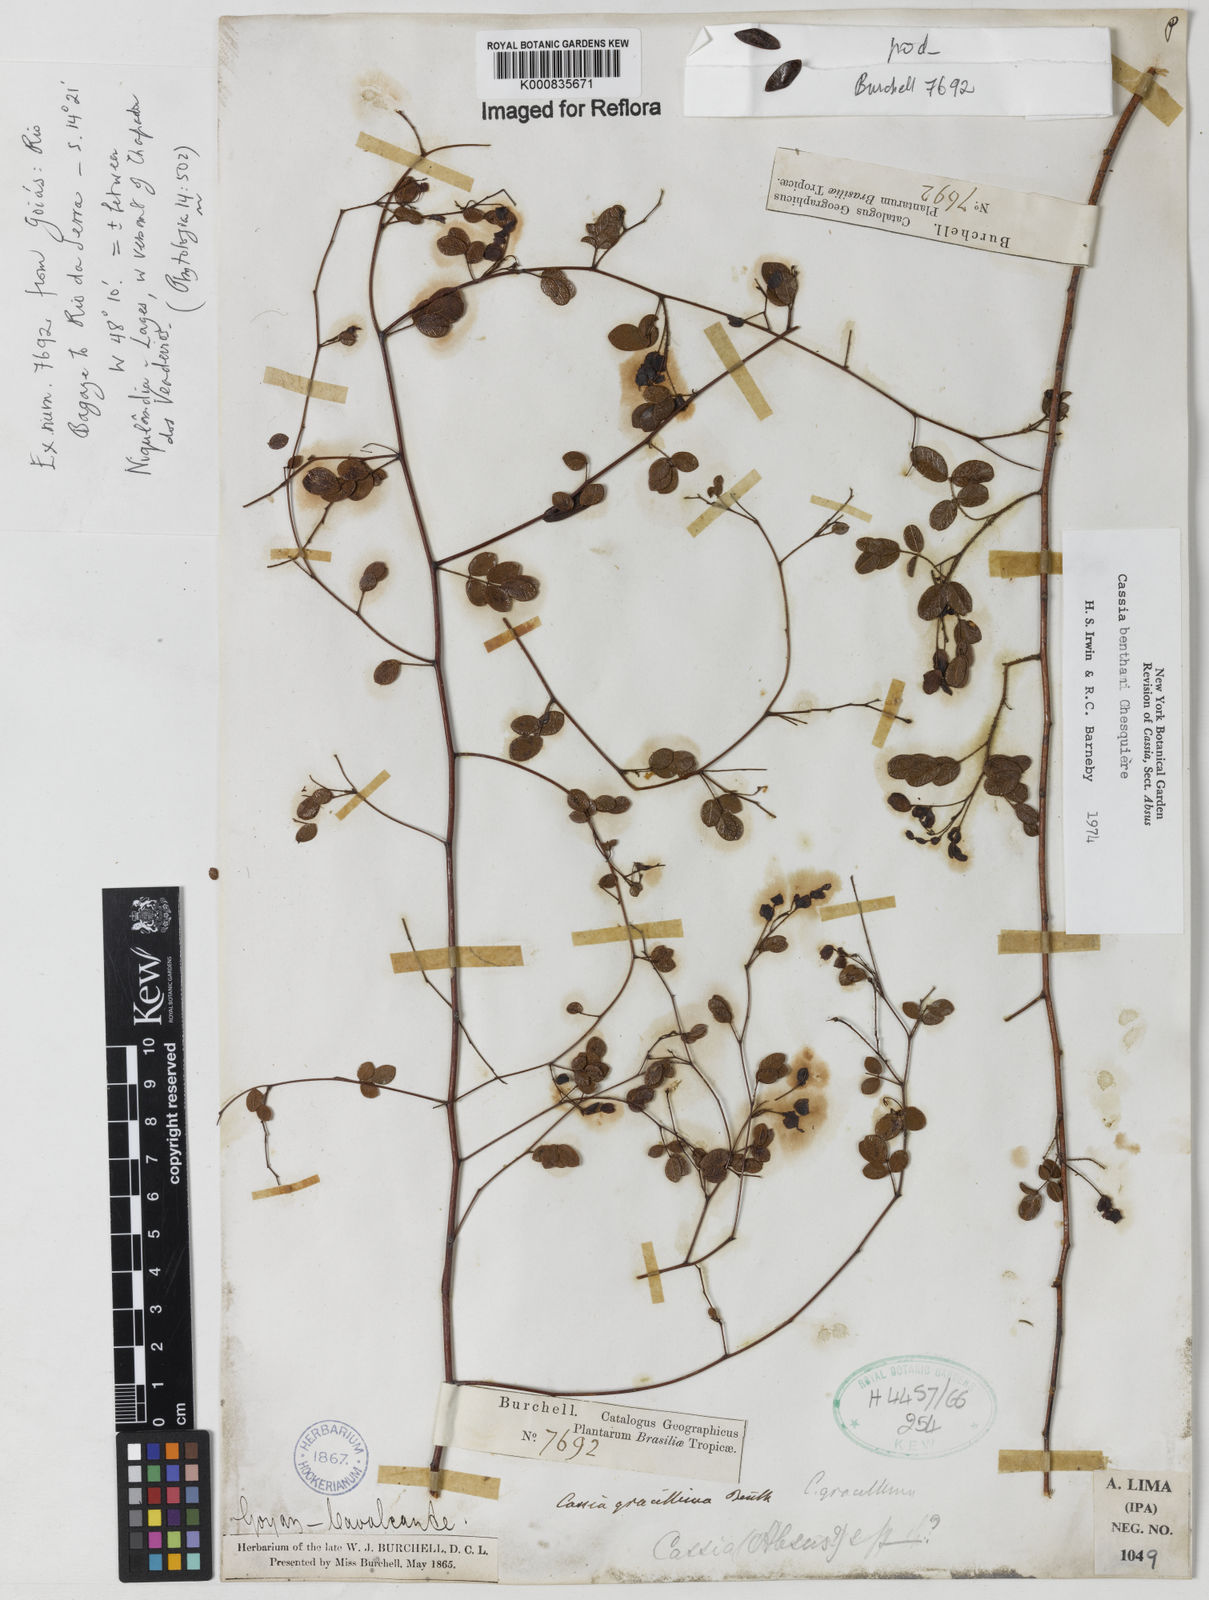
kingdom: Plantae
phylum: Tracheophyta
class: Magnoliopsida
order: Fabales
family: Fabaceae
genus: Chamaecrista
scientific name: Chamaecrista benthamii
